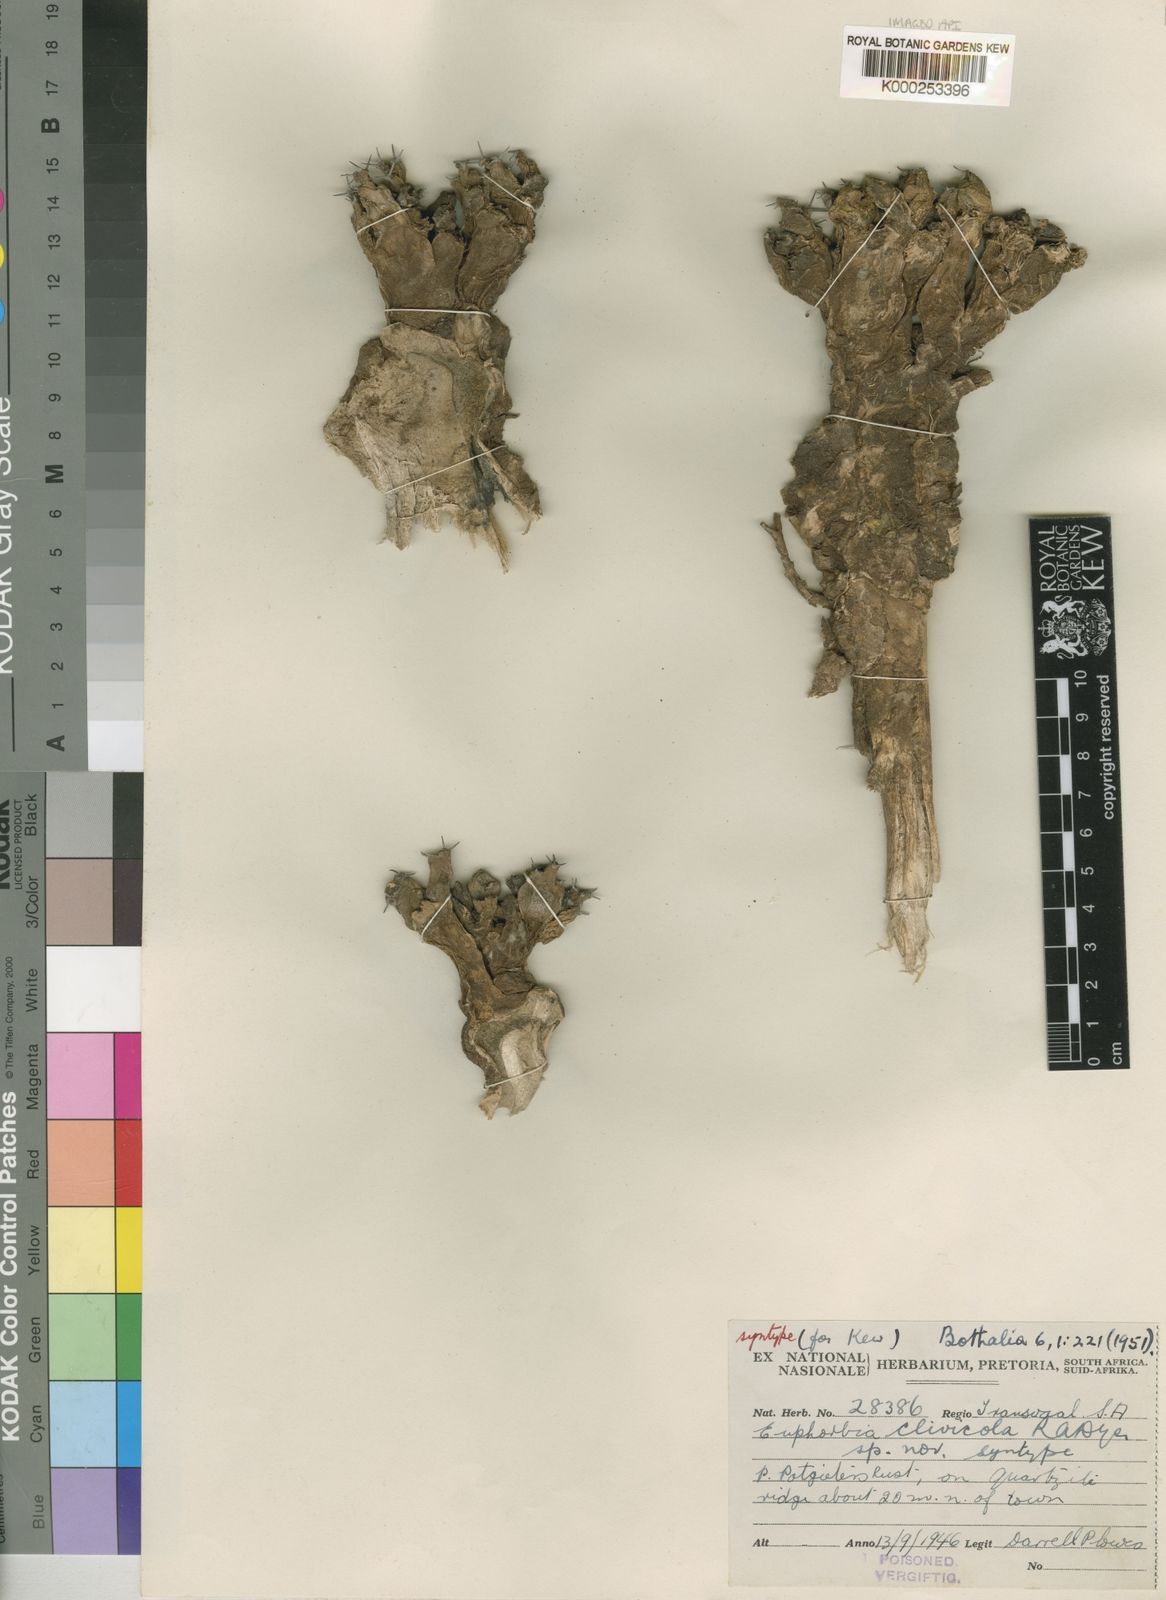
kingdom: Plantae
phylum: Tracheophyta
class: Magnoliopsida
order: Malpighiales
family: Euphorbiaceae
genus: Euphorbia
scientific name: Euphorbia clivicola
